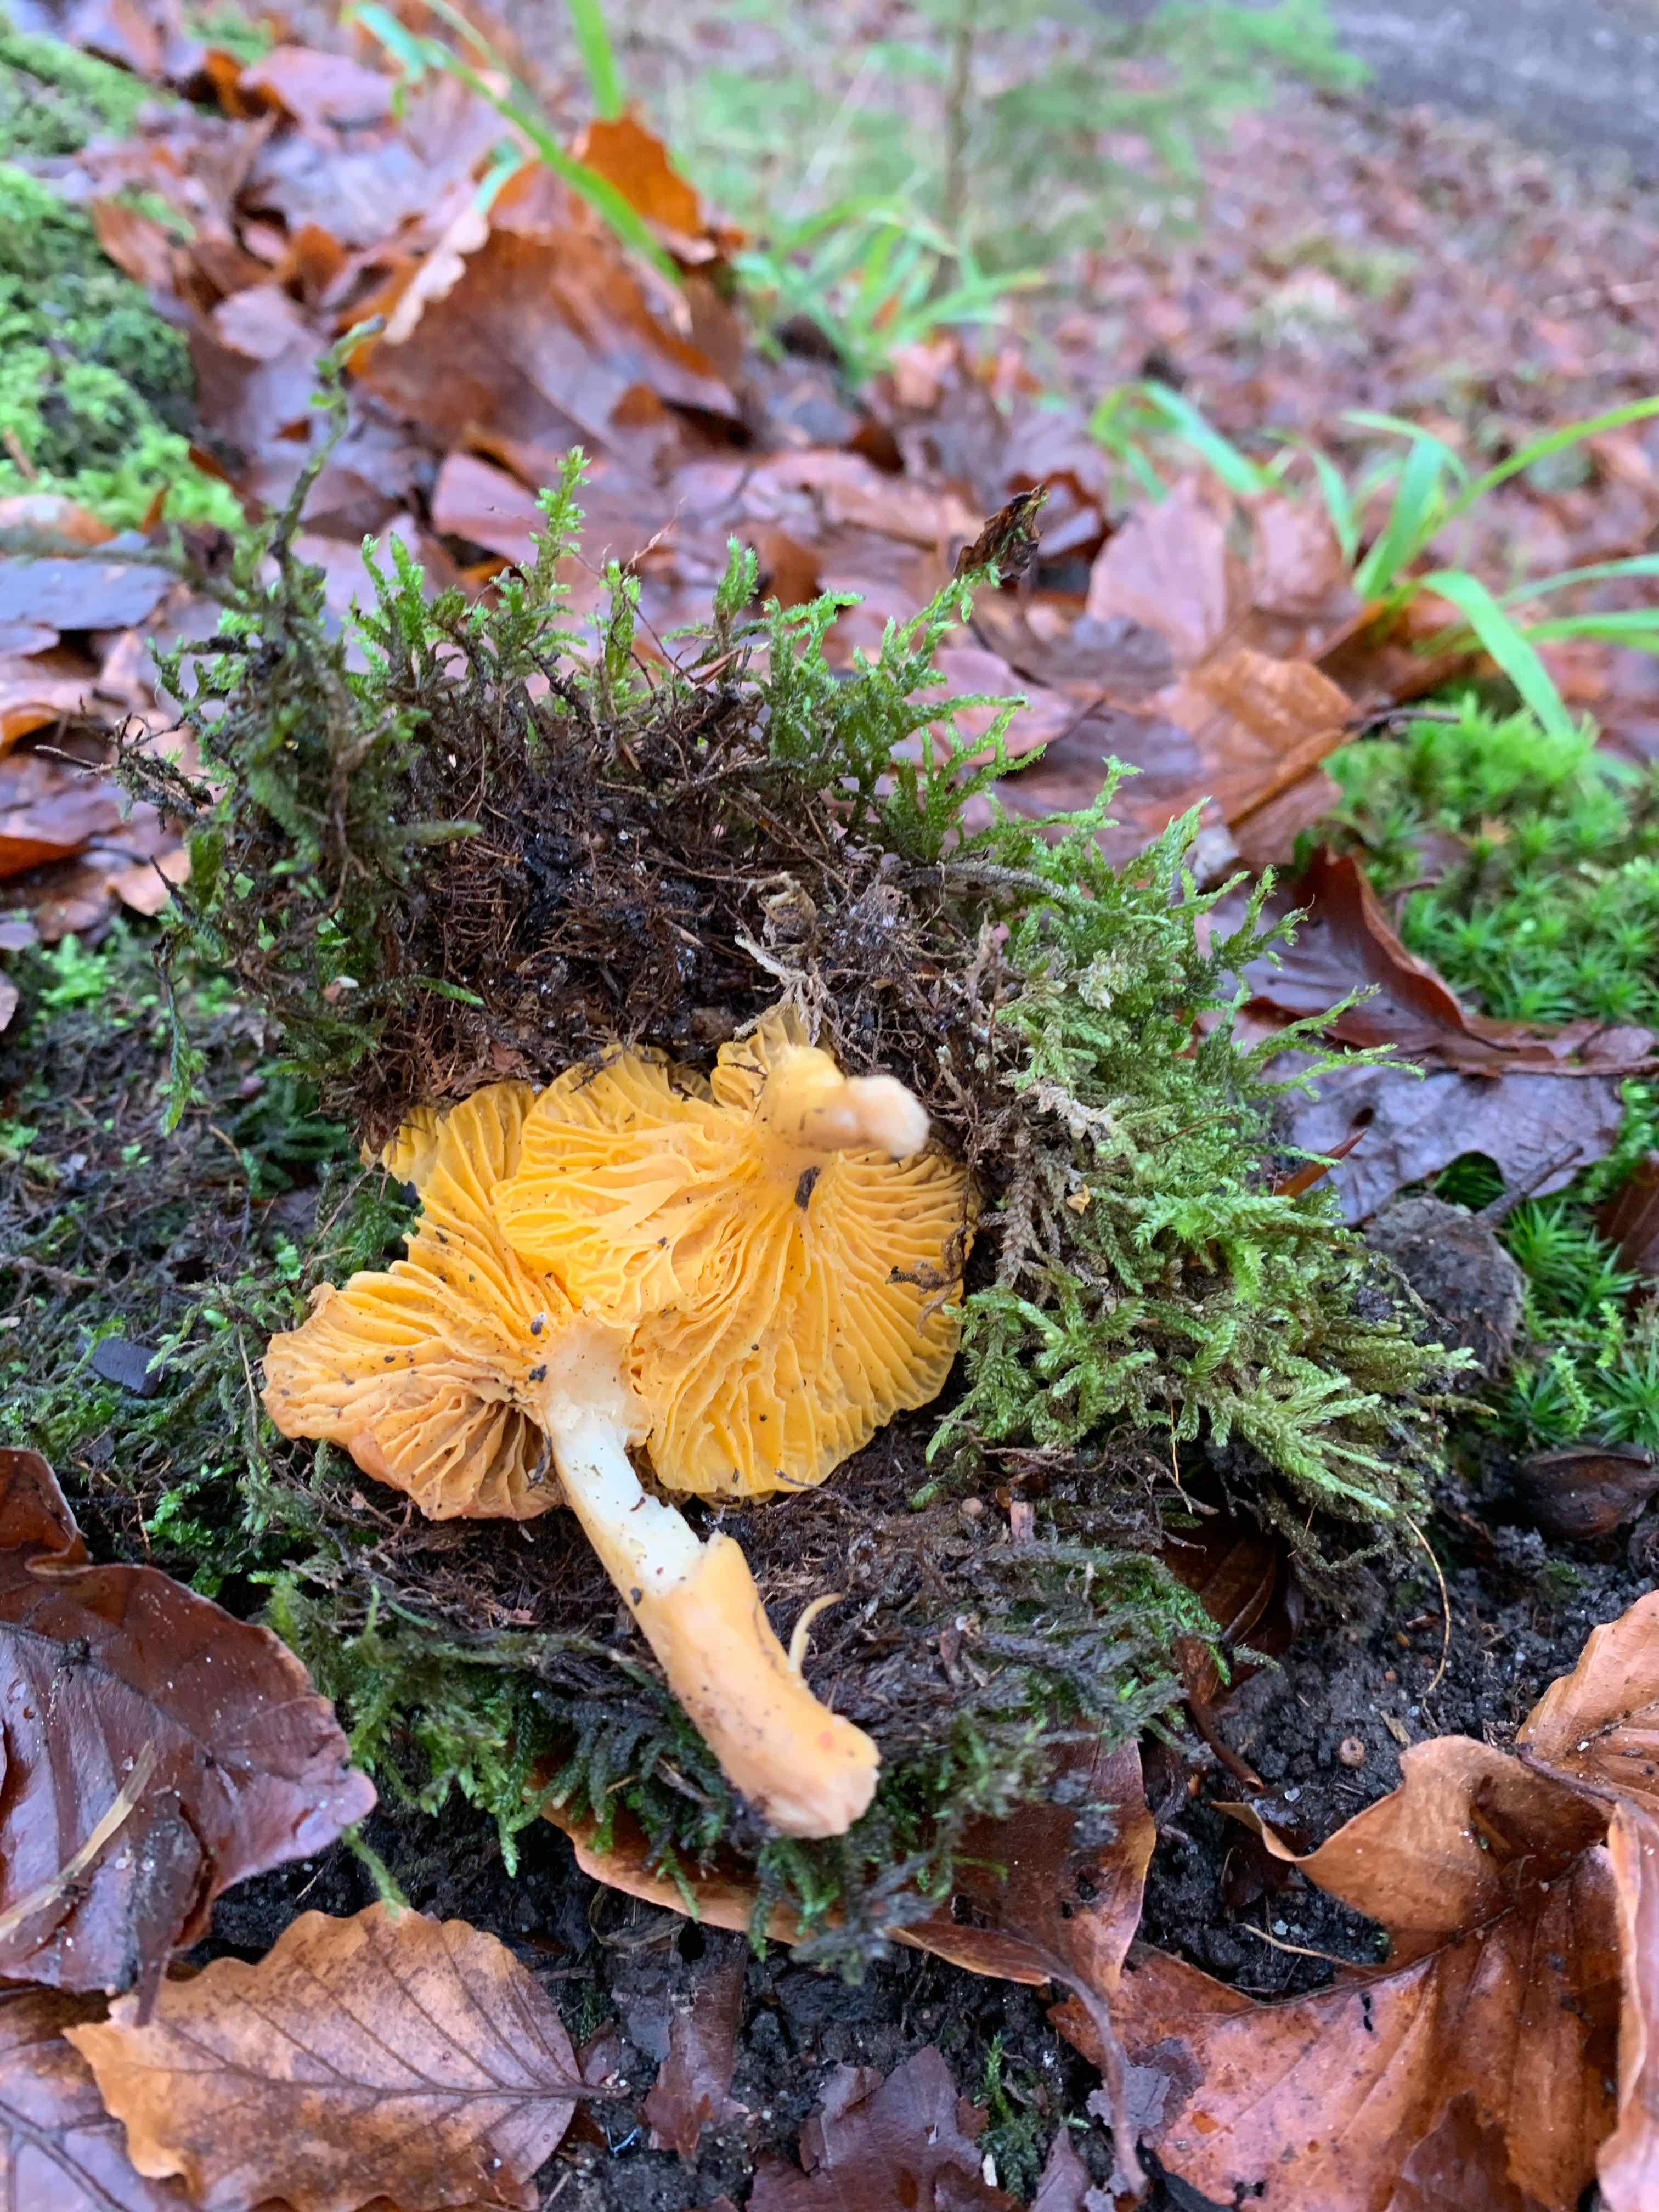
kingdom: Fungi
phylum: Basidiomycota
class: Agaricomycetes
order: Cantharellales
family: Hydnaceae
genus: Cantharellus
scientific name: Cantharellus cibarius
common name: almindelig kantarel
